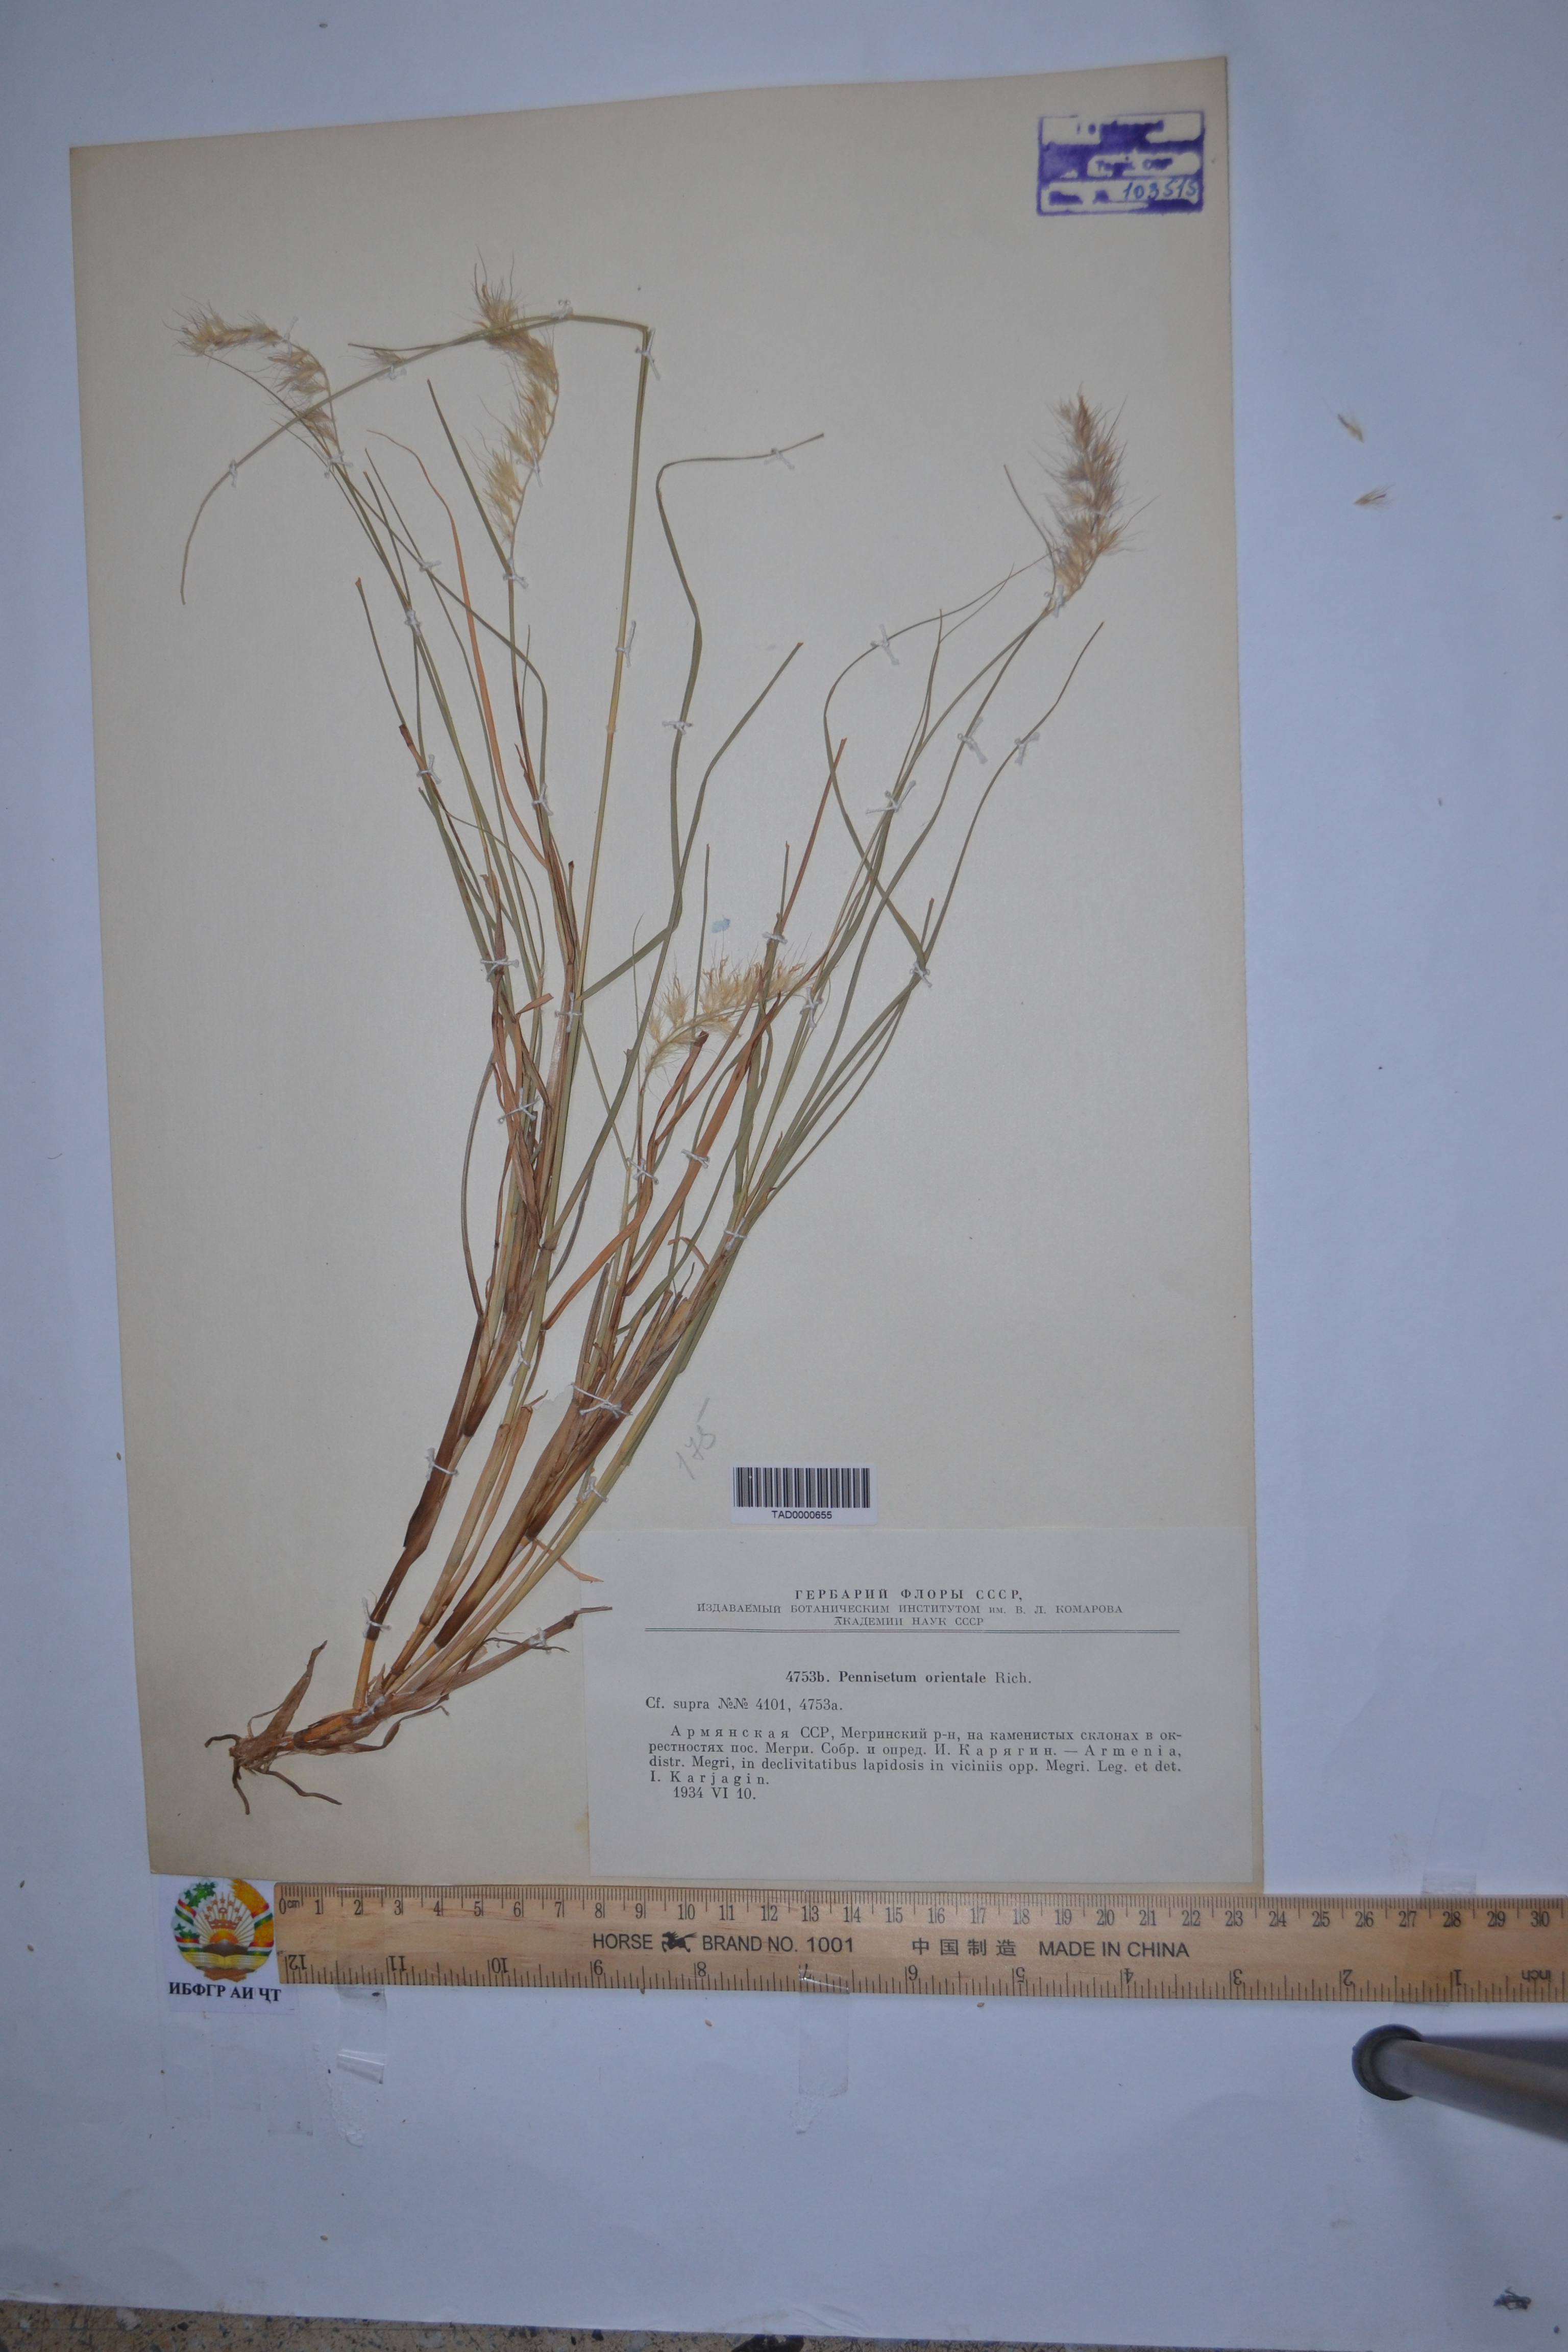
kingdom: Plantae
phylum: Tracheophyta
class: Liliopsida
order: Poales
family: Poaceae
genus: Cenchrus
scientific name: Cenchrus Pennisetum spec
